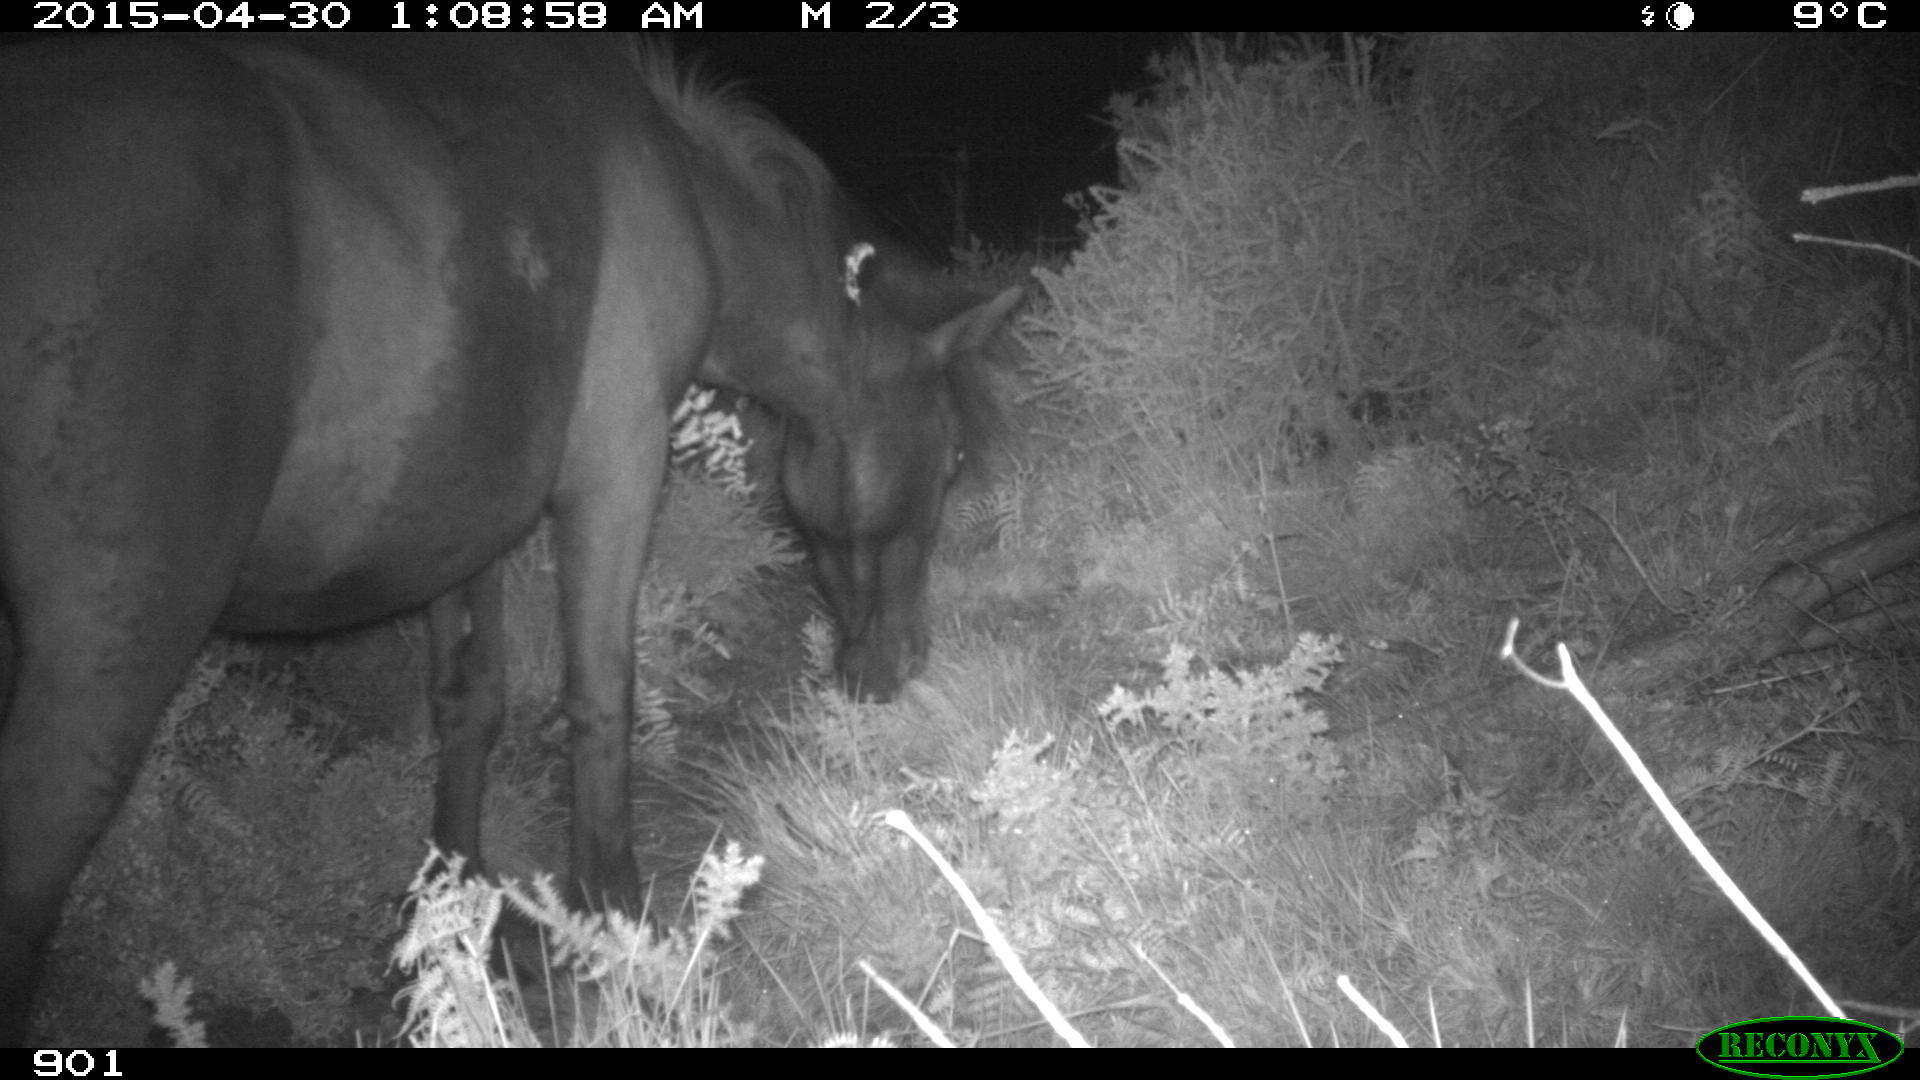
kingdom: Animalia
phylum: Chordata
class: Mammalia
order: Perissodactyla
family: Equidae
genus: Equus
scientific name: Equus caballus
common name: Horse
